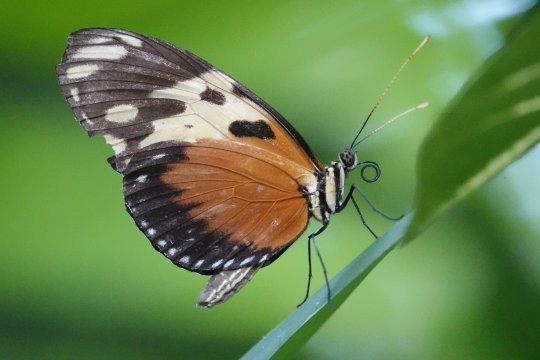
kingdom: Animalia
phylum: Arthropoda
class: Insecta
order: Lepidoptera
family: Nymphalidae
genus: Heliconius
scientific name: Heliconius hecale
